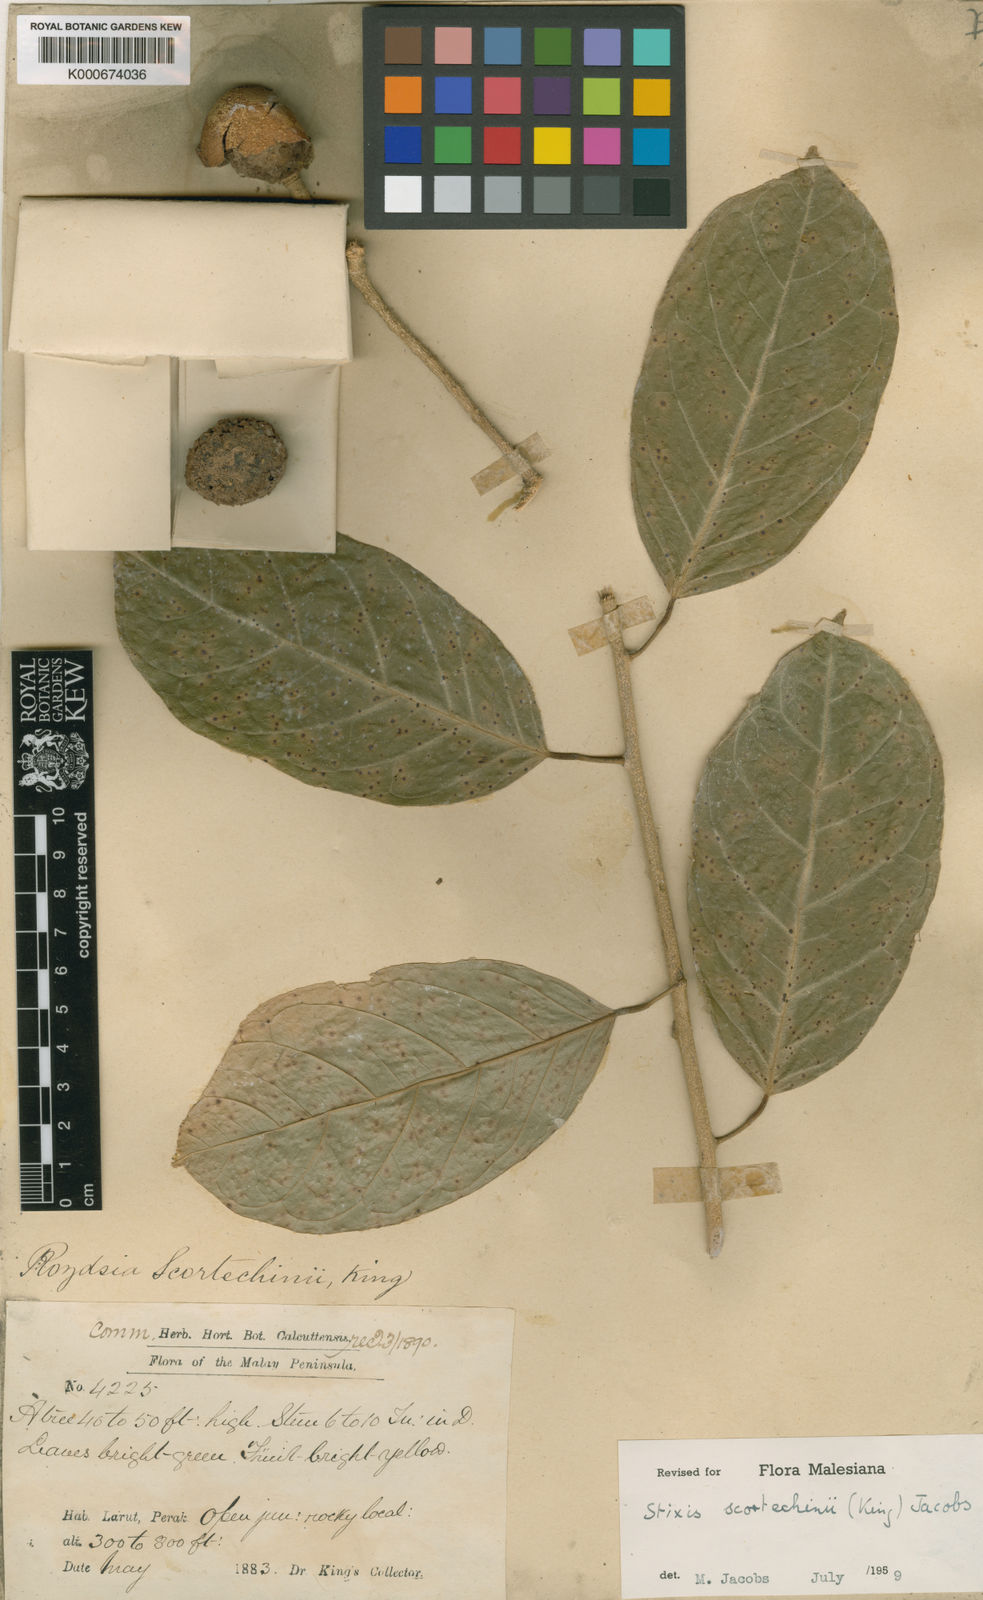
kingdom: Plantae
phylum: Tracheophyta
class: Magnoliopsida
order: Brassicales
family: Stixaceae
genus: Stixis
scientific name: Stixis scortechinii
